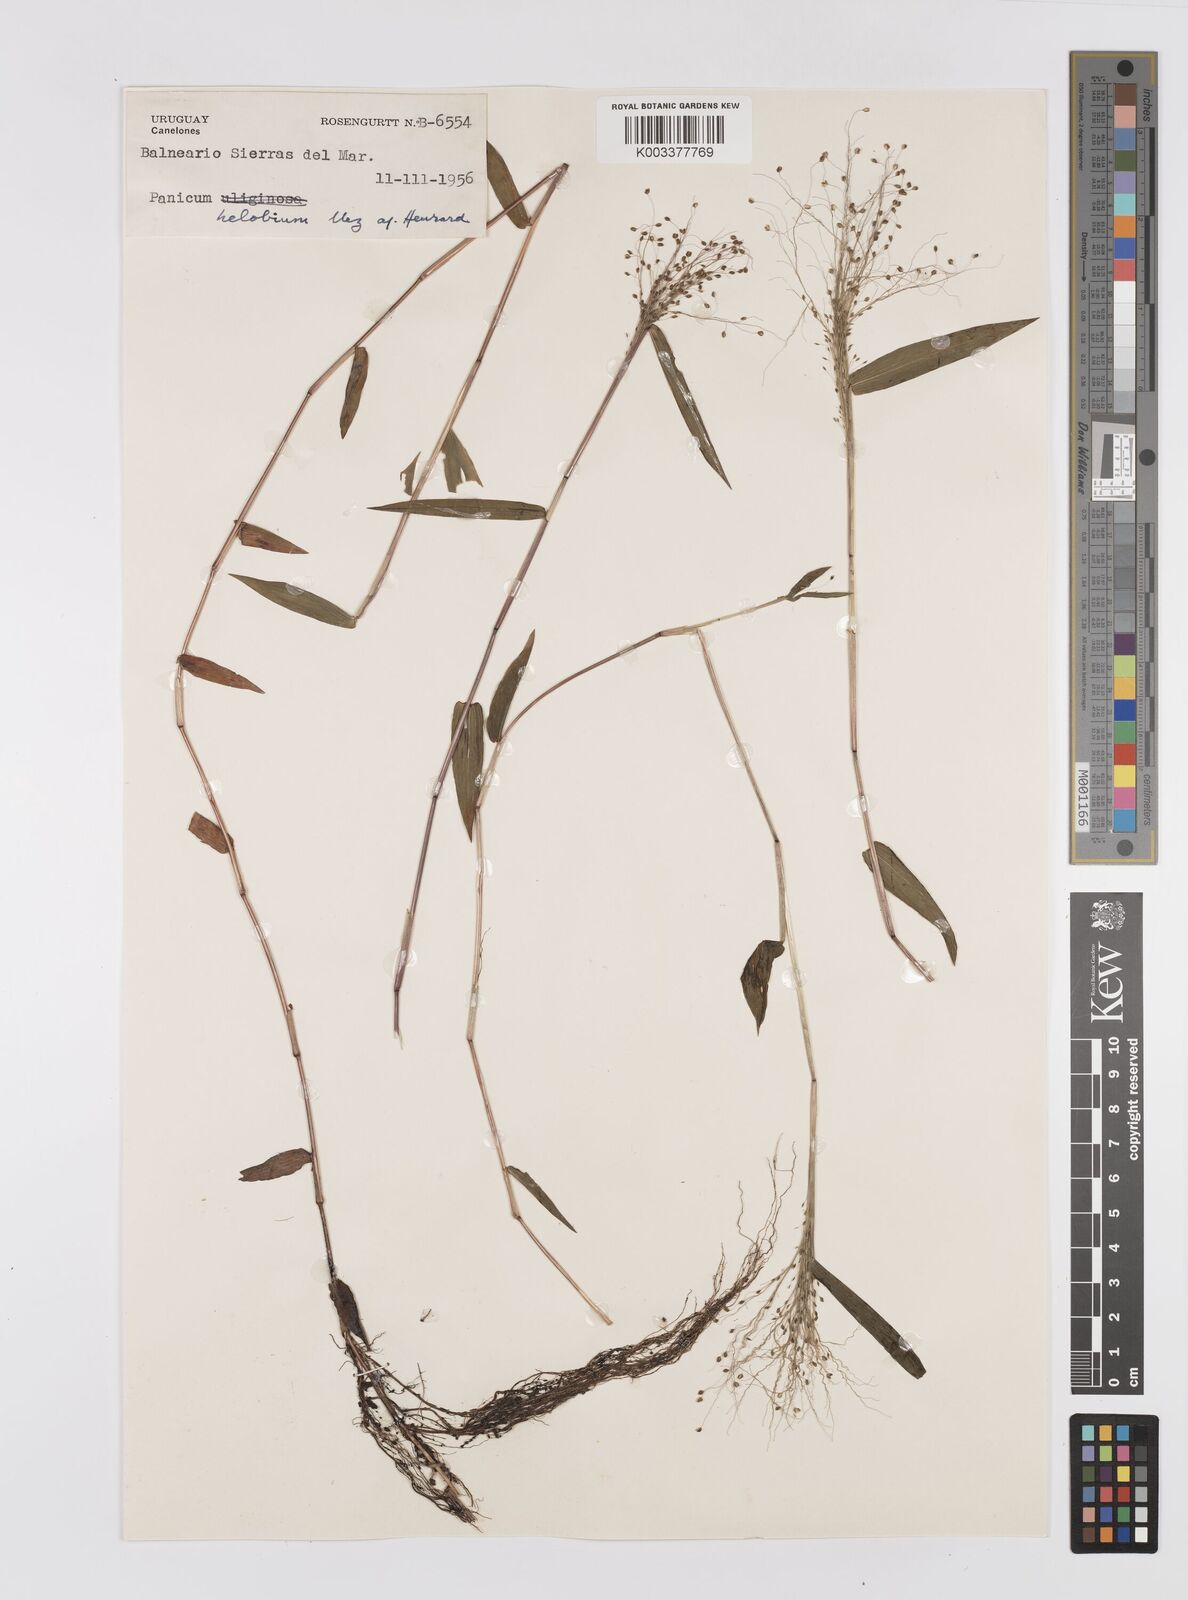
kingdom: Plantae
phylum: Tracheophyta
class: Liliopsida
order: Poales
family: Poaceae
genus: Trichanthecium
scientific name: Trichanthecium schwackeanum
